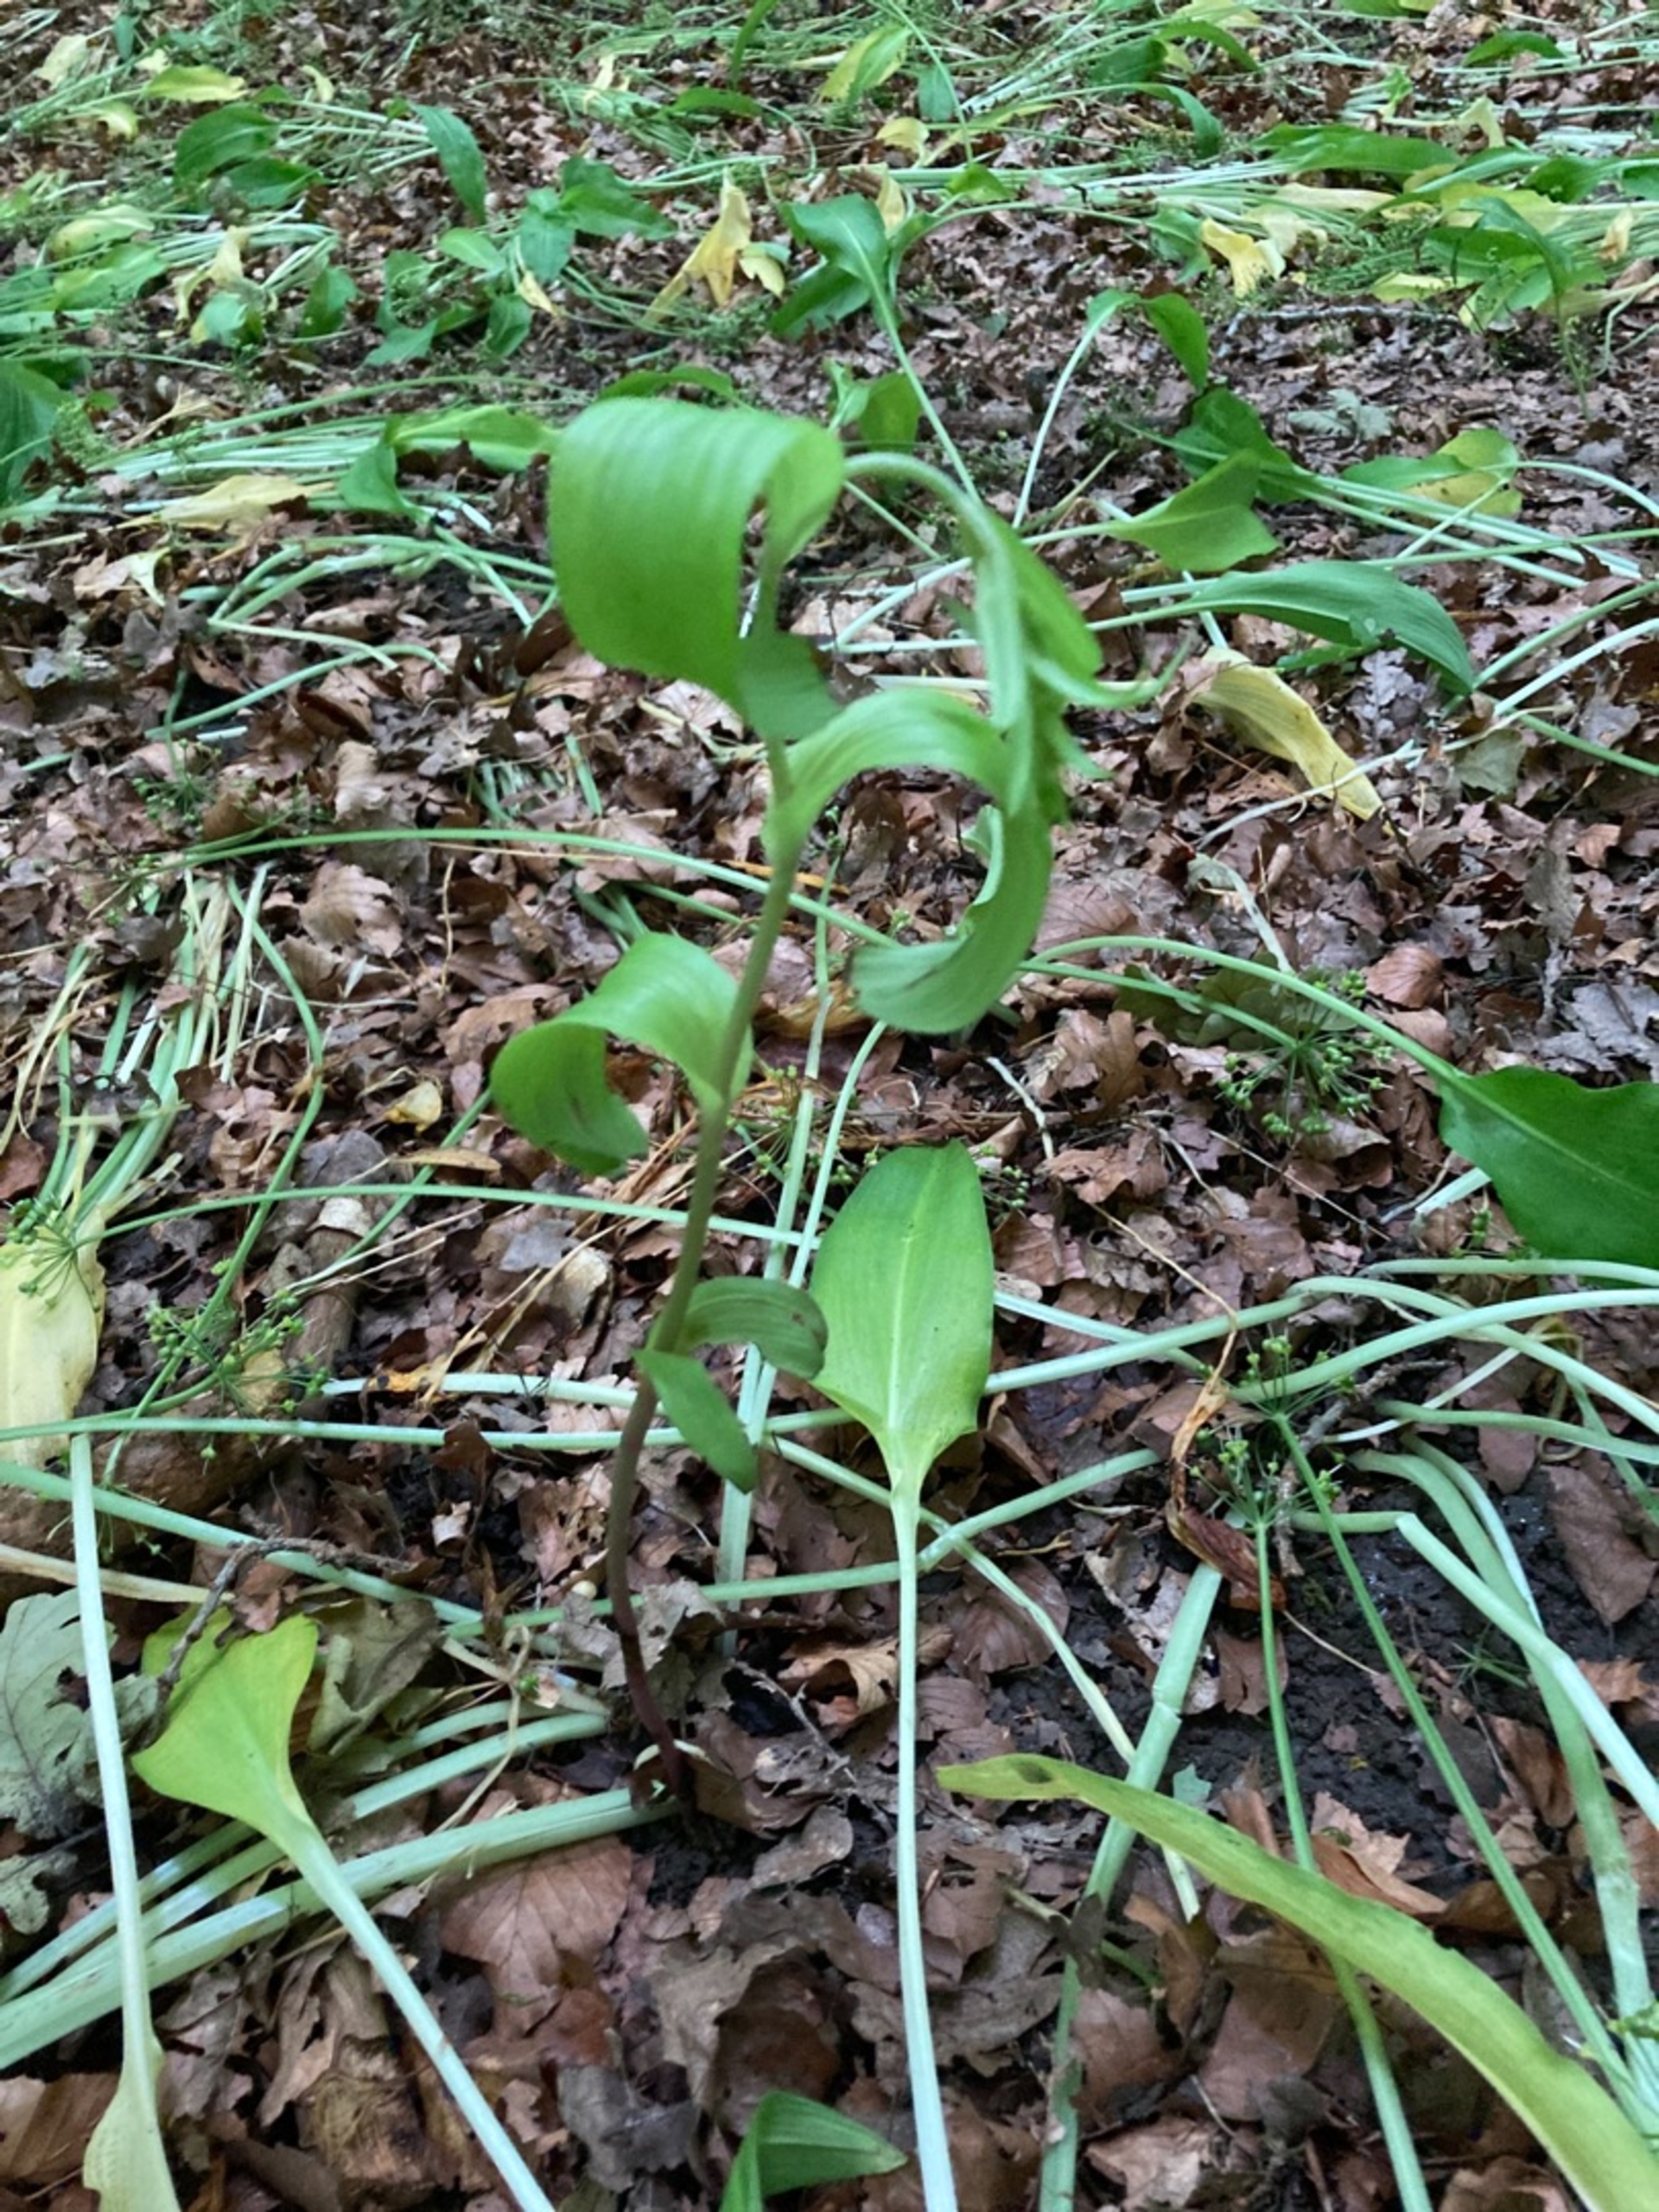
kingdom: Plantae
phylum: Tracheophyta
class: Liliopsida
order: Asparagales
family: Orchidaceae
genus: Epipactis
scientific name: Epipactis helleborine
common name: Skov-hullæbe
